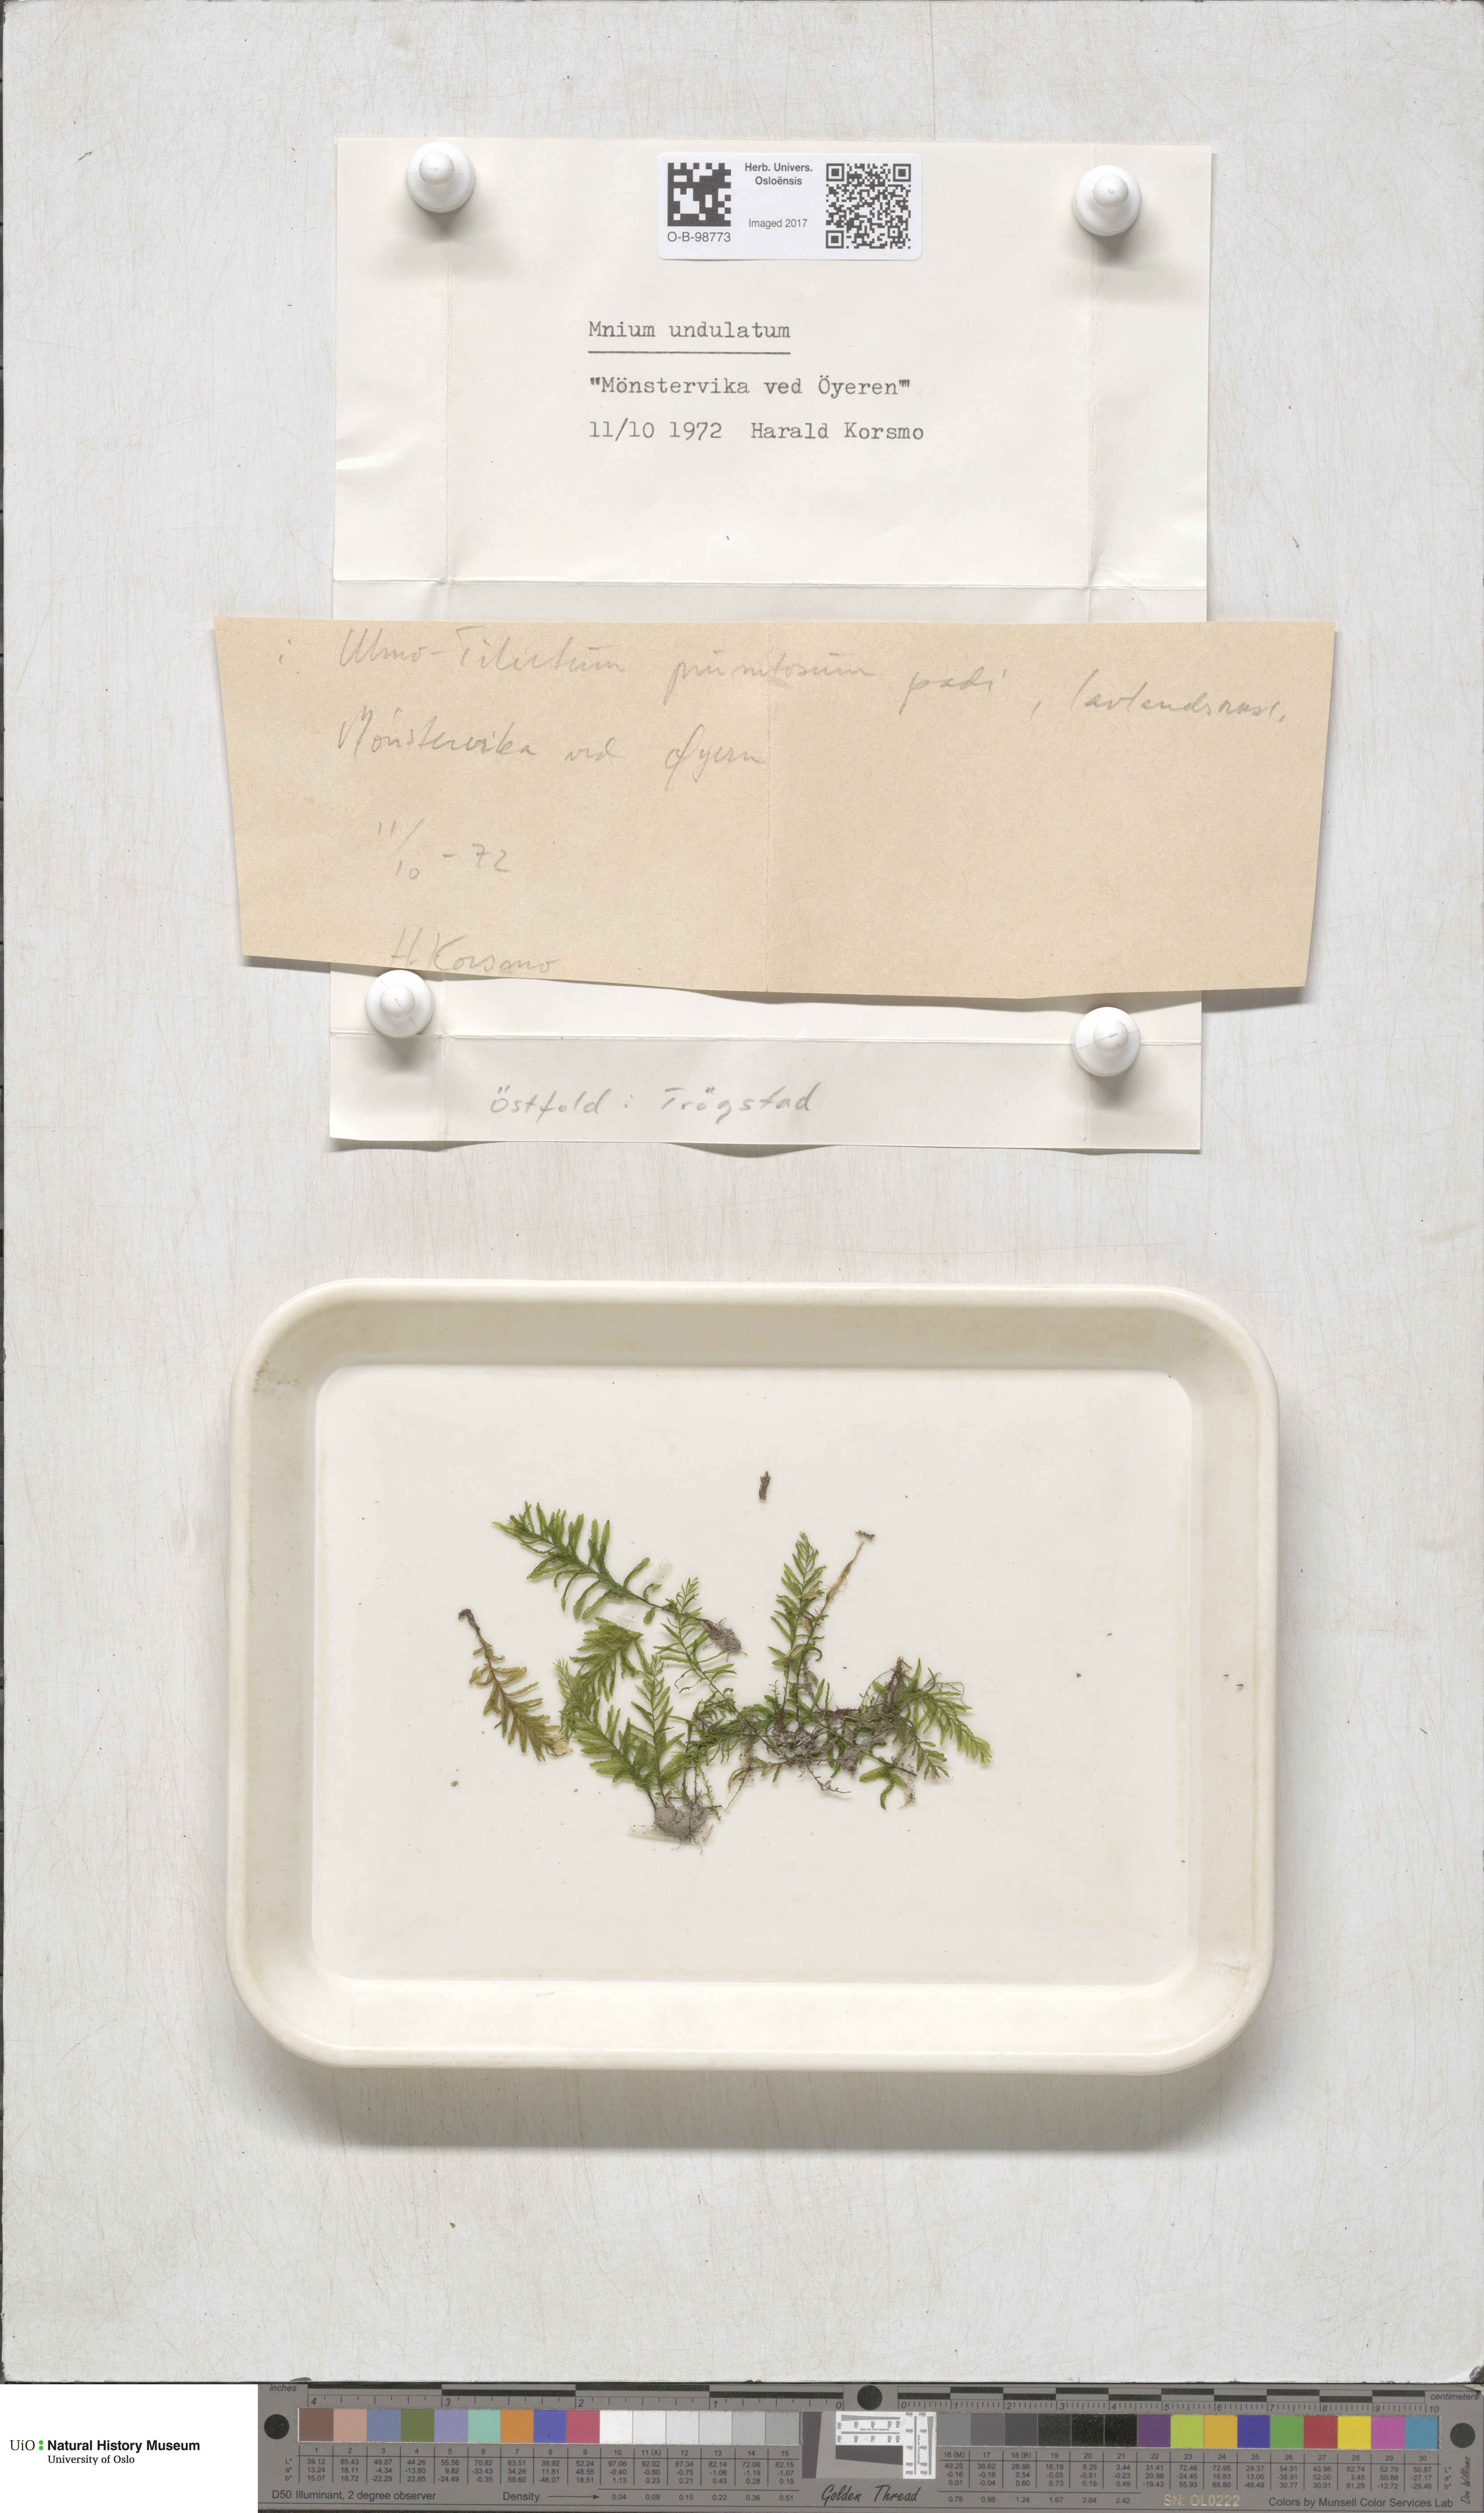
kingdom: Plantae
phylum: Bryophyta
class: Bryopsida
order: Bryales
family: Mniaceae
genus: Plagiomnium
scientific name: Plagiomnium undulatum
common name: Hart's-tongue thyme-moss
